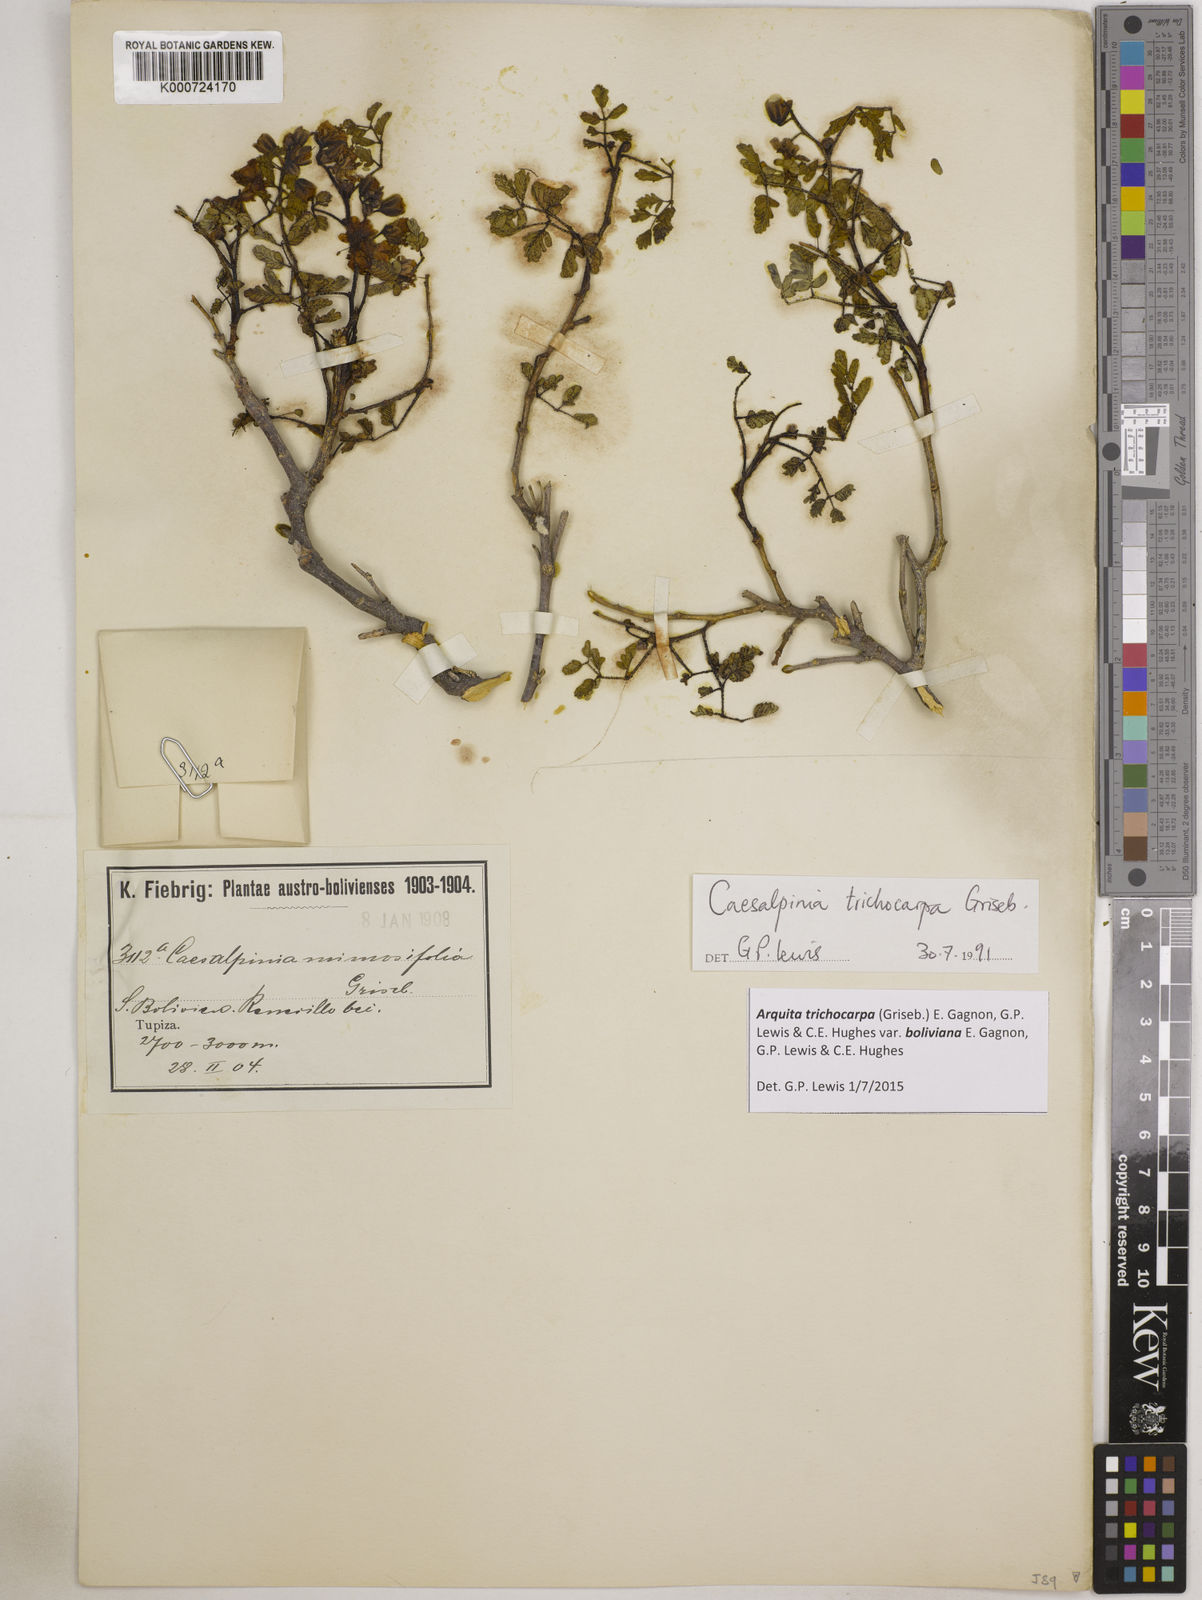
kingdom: Plantae
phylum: Tracheophyta
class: Magnoliopsida
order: Fabales
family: Fabaceae
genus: Arquita
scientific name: Arquita trichocarpa
